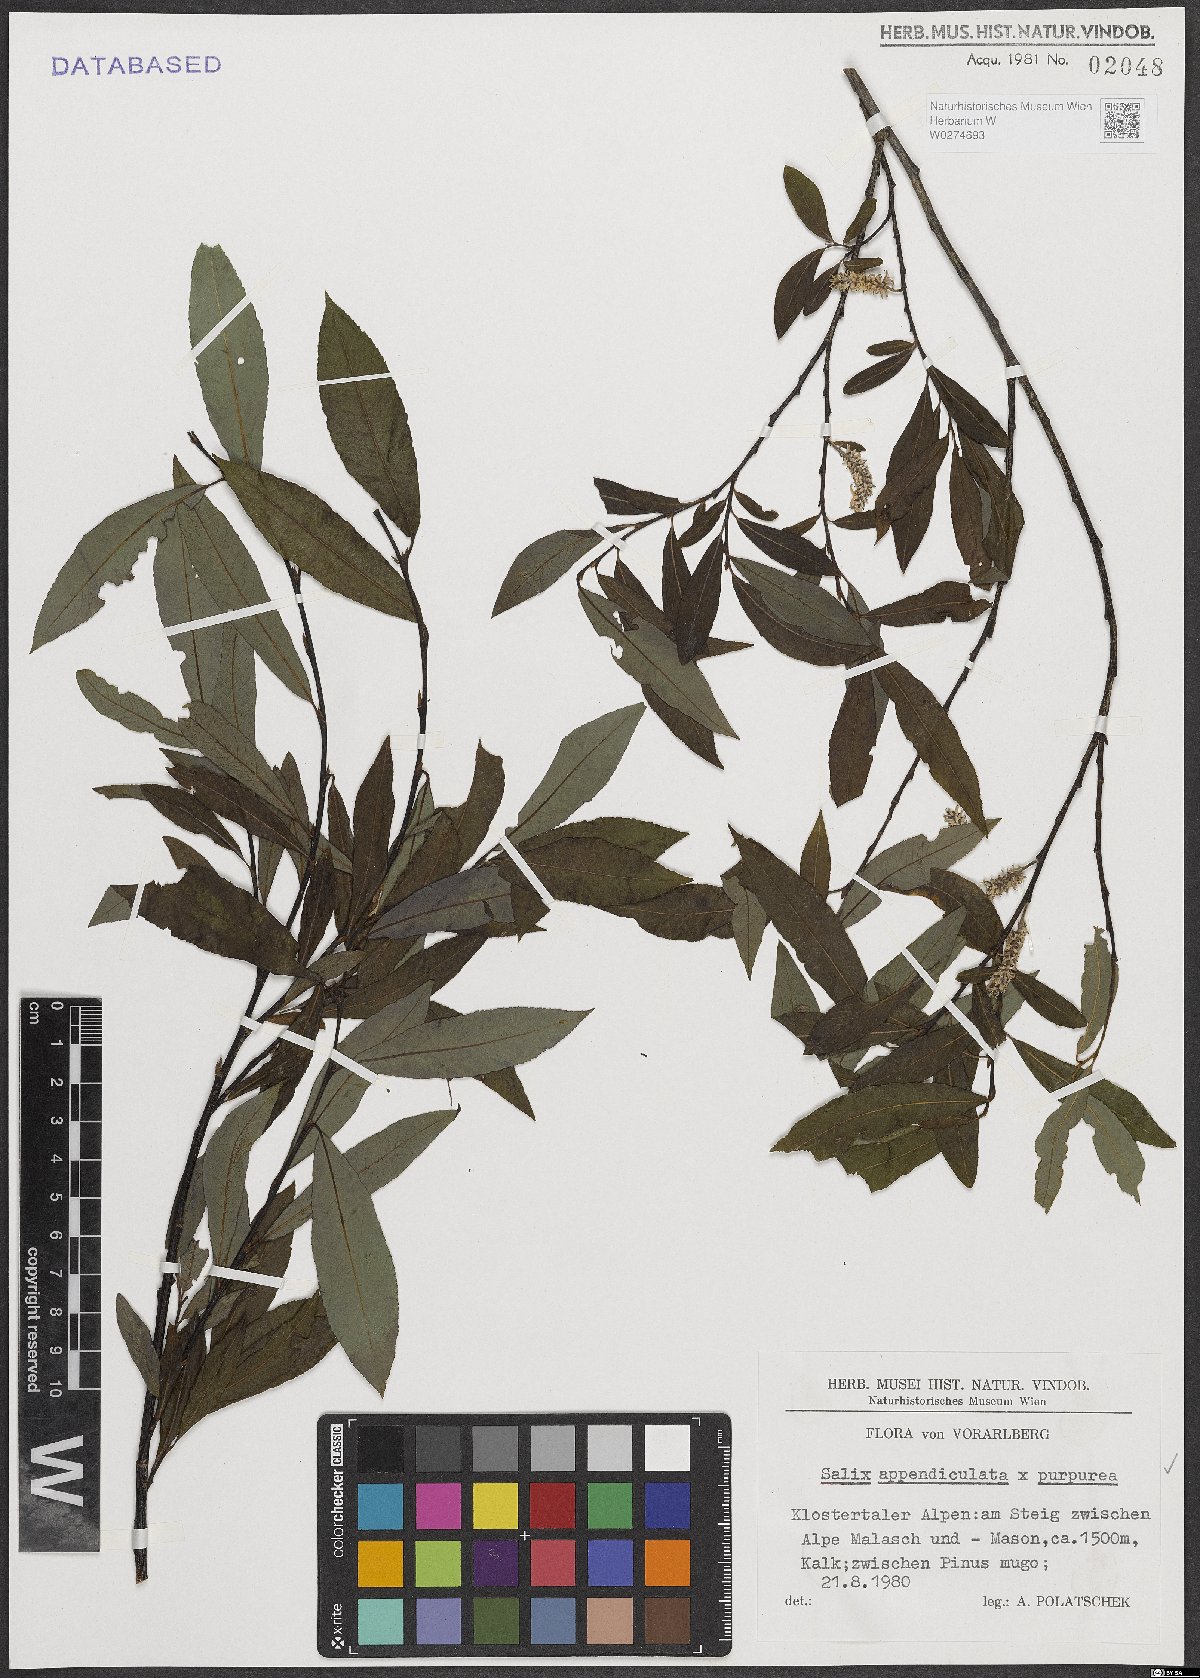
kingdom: Plantae
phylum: Tracheophyta
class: Magnoliopsida
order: Malpighiales
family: Salicaceae
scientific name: Salicaceae
